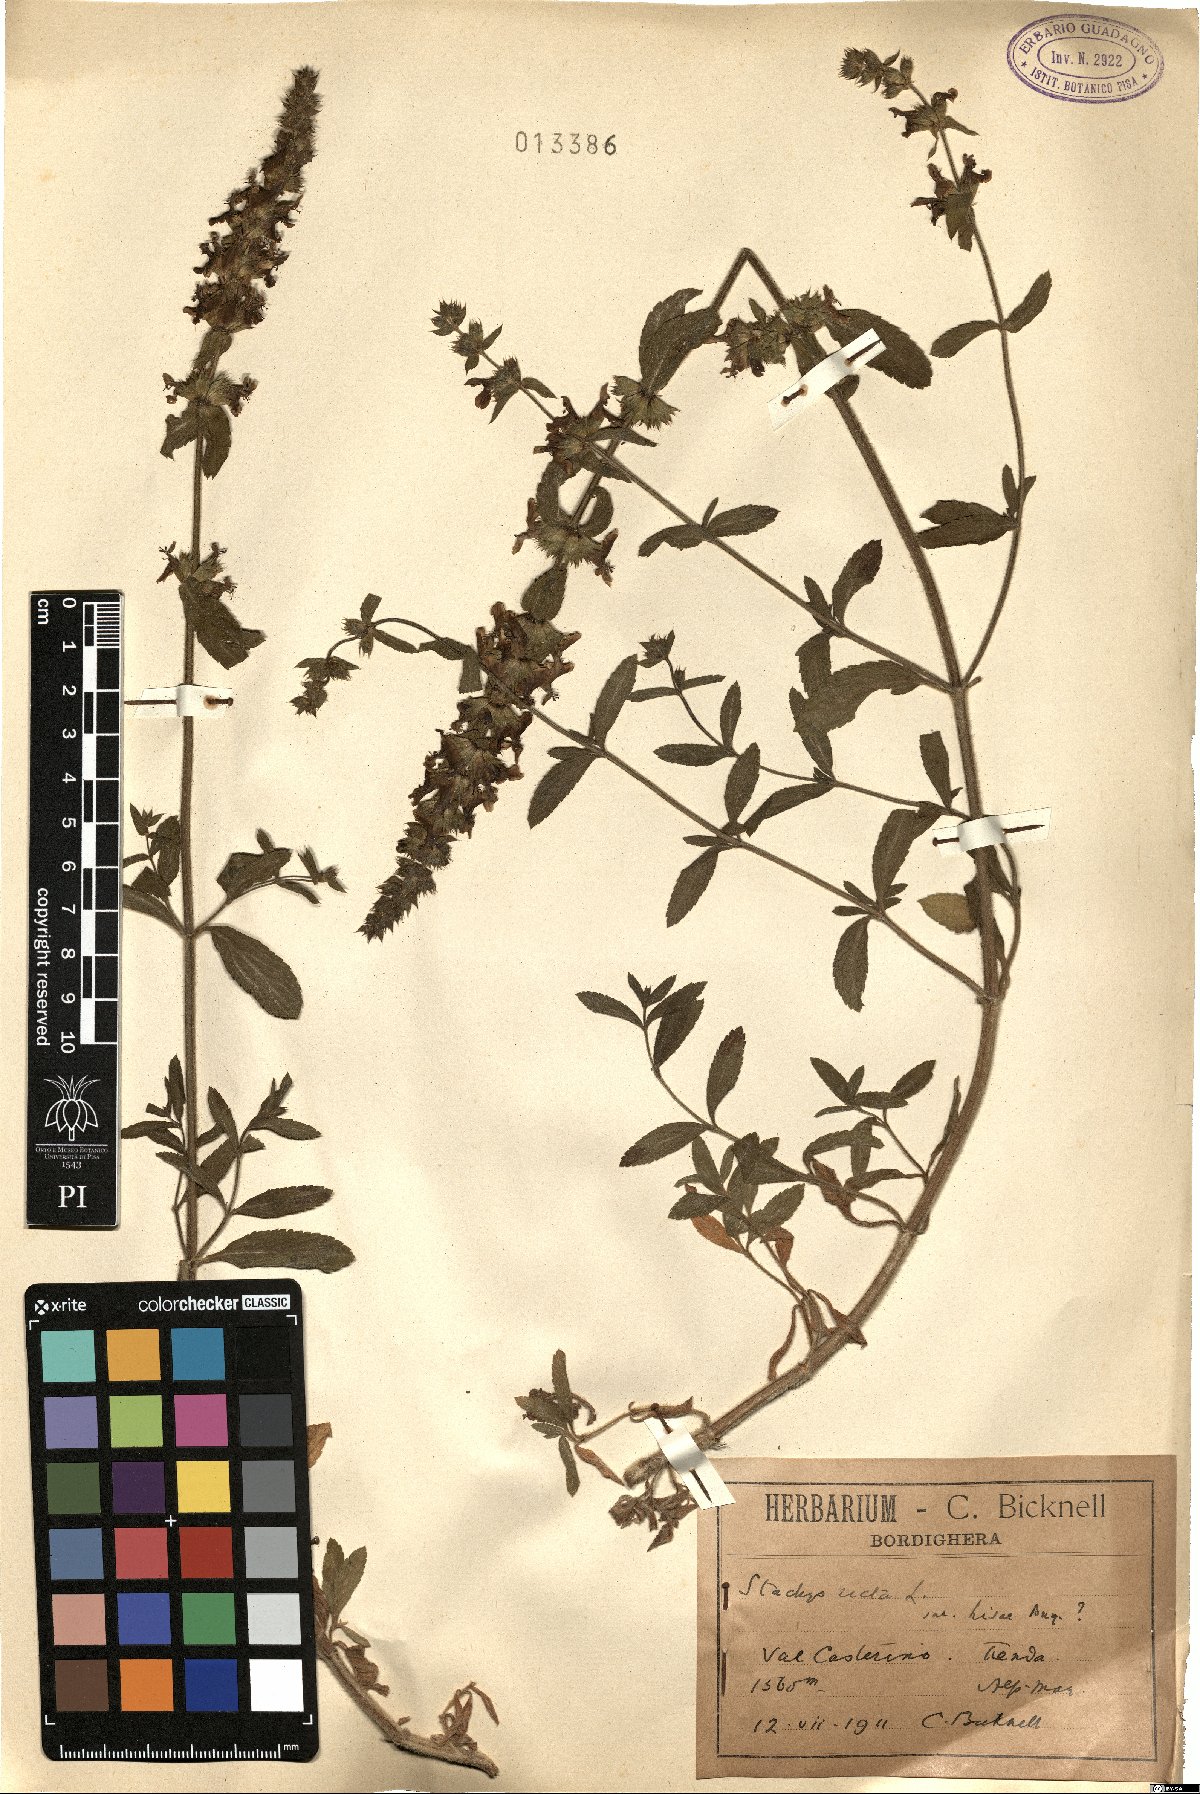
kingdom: Plantae
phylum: Tracheophyta
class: Magnoliopsida
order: Lamiales
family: Lamiaceae
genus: Stachys
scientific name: Stachys recta
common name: Perennial yellow-woundwort
